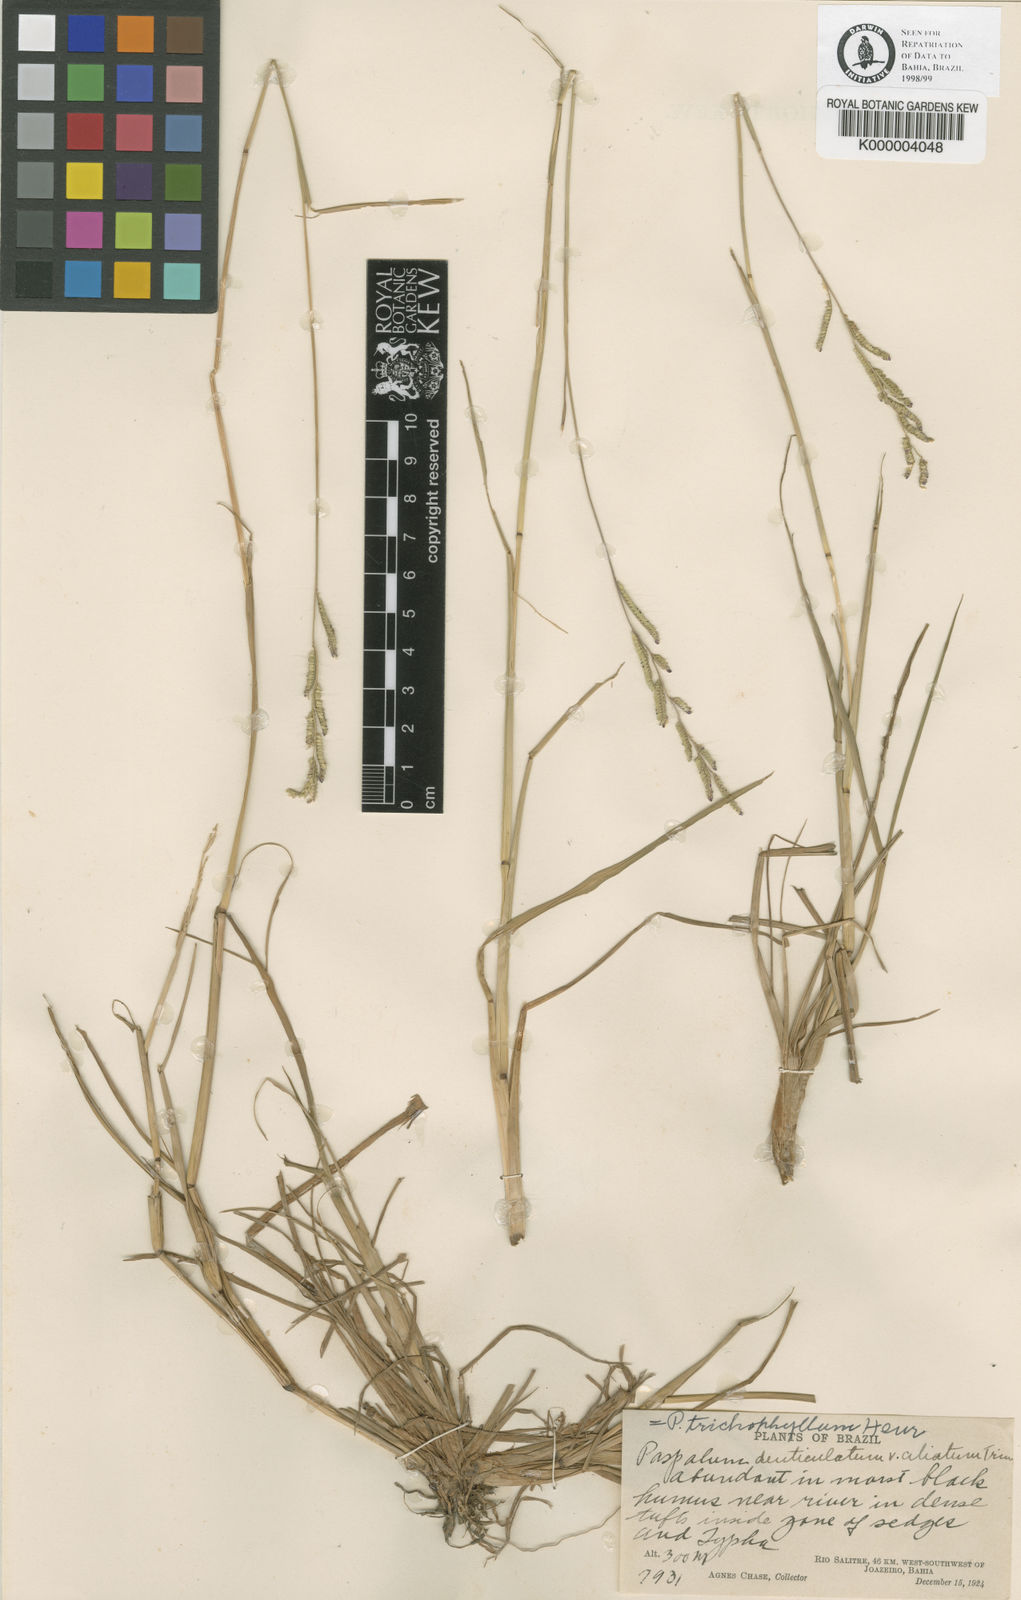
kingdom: Plantae
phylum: Tracheophyta
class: Liliopsida
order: Poales
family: Poaceae
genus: Paspalum
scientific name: Paspalum trichophyllum
